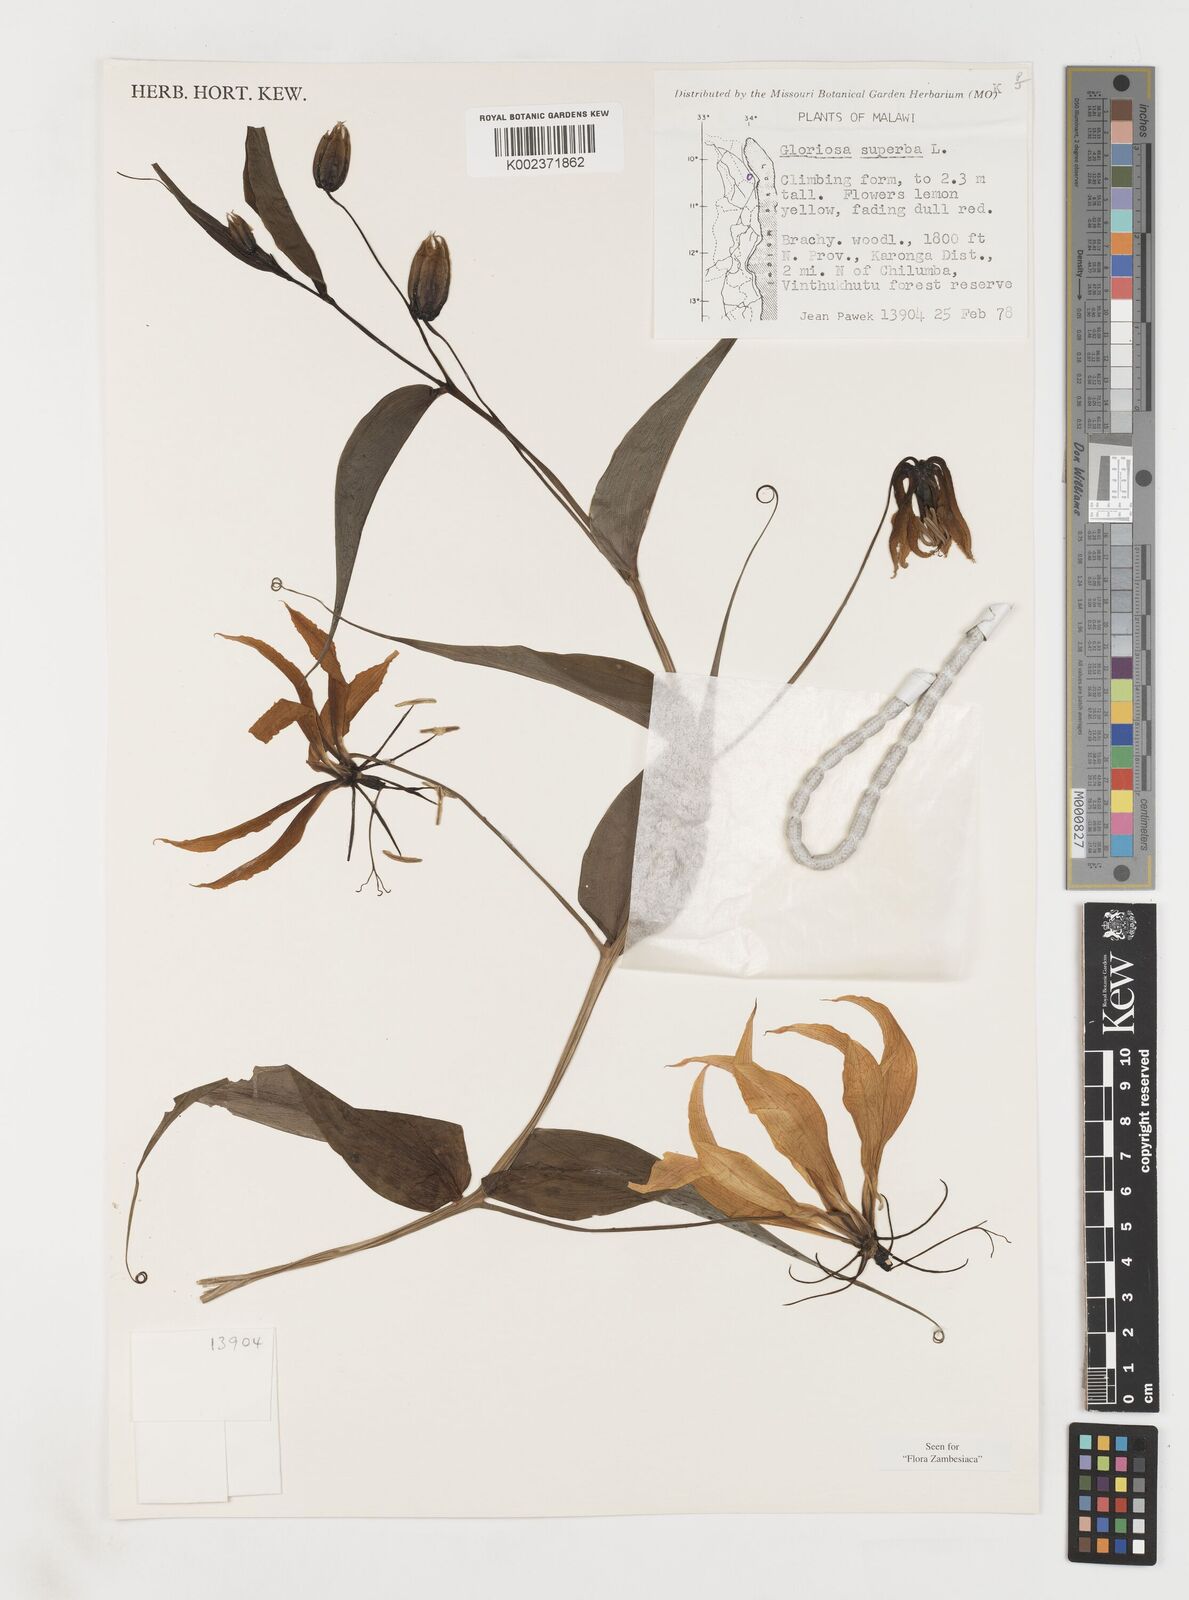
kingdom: Plantae
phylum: Tracheophyta
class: Liliopsida
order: Liliales
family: Colchicaceae
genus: Gloriosa
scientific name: Gloriosa simplex
